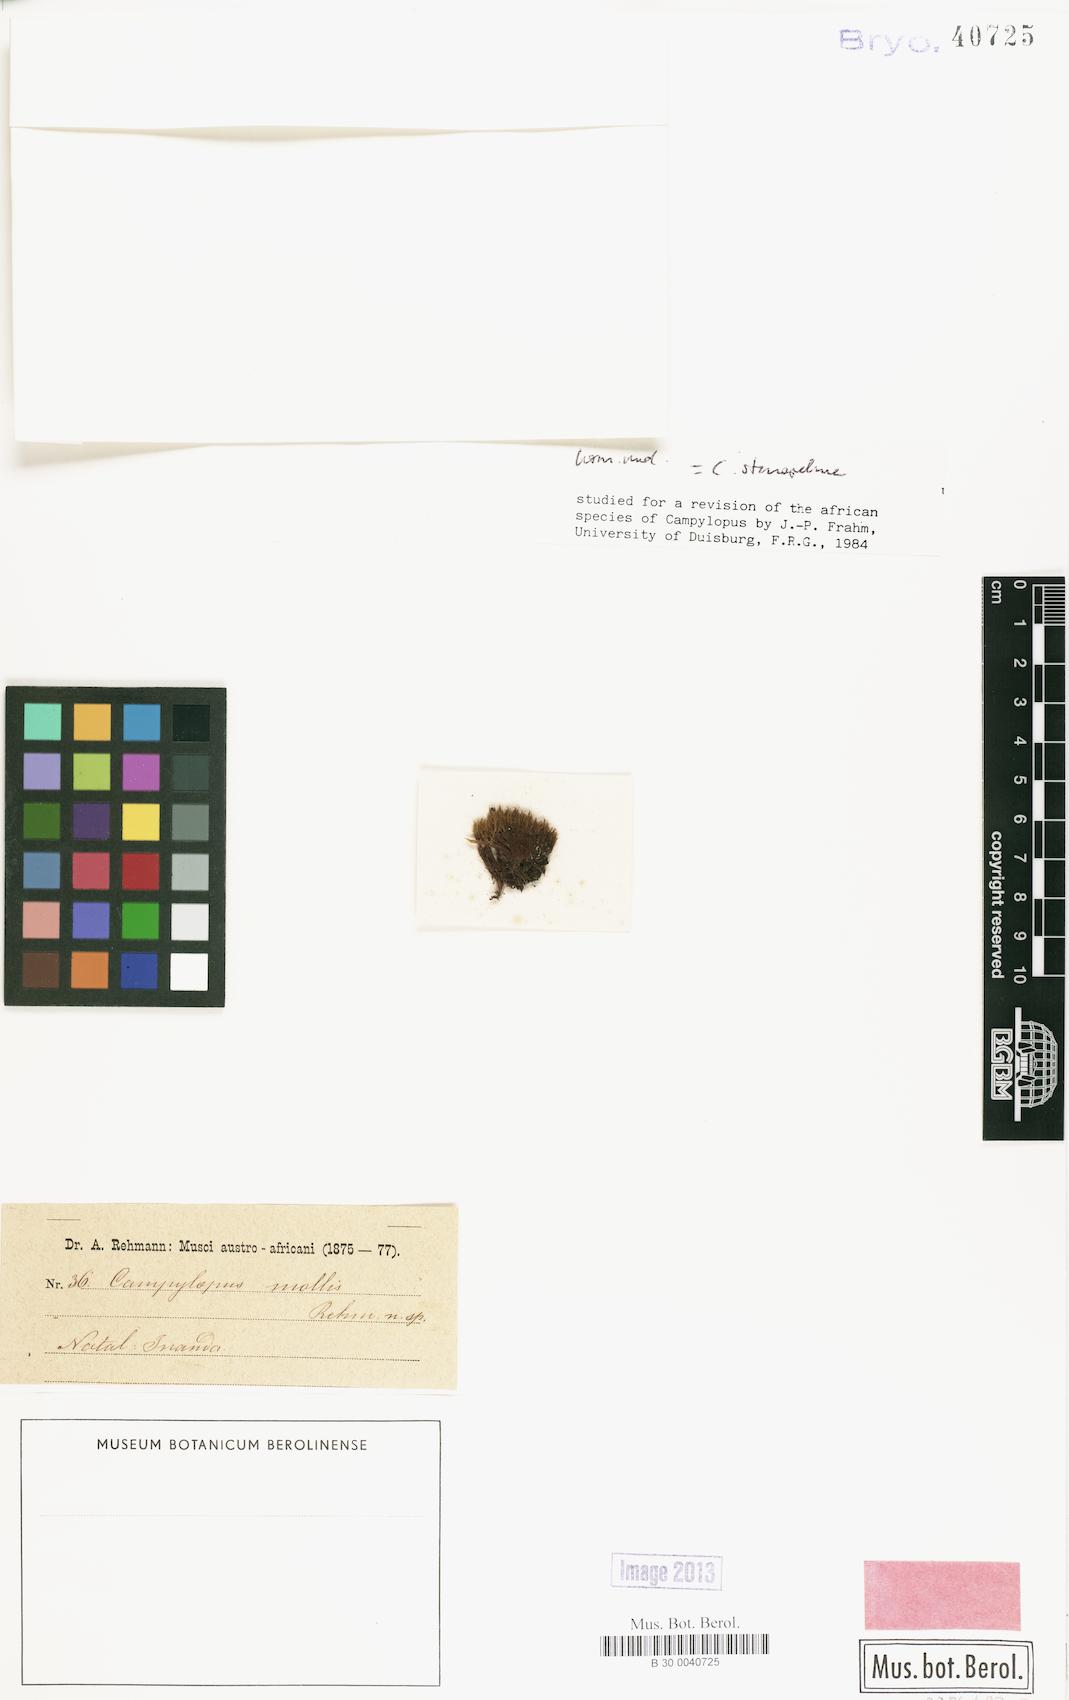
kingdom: Plantae
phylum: Bryophyta
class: Bryopsida
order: Dicranales
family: Leucobryaceae
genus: Campylopus
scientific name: Campylopus thwaitesii
